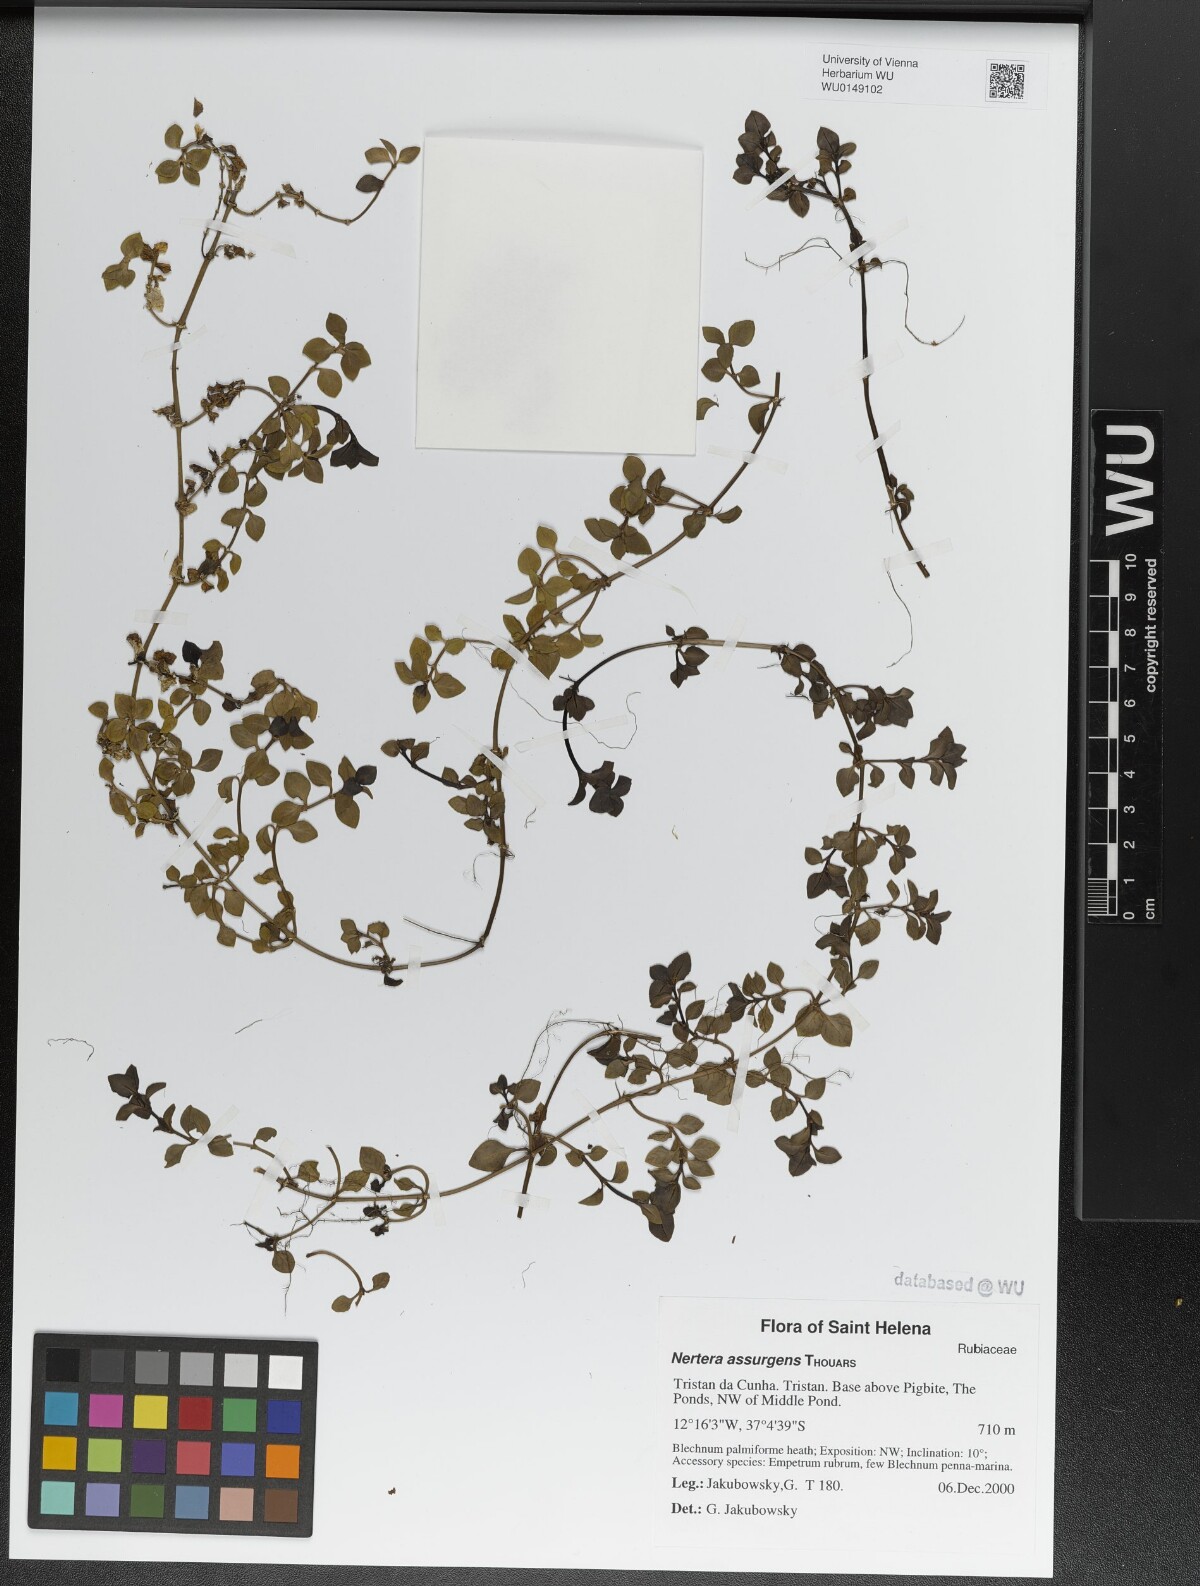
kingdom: Plantae
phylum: Tracheophyta
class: Magnoliopsida
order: Gentianales
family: Rubiaceae
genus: Nertera
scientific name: Nertera granadensis
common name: Beadplant
